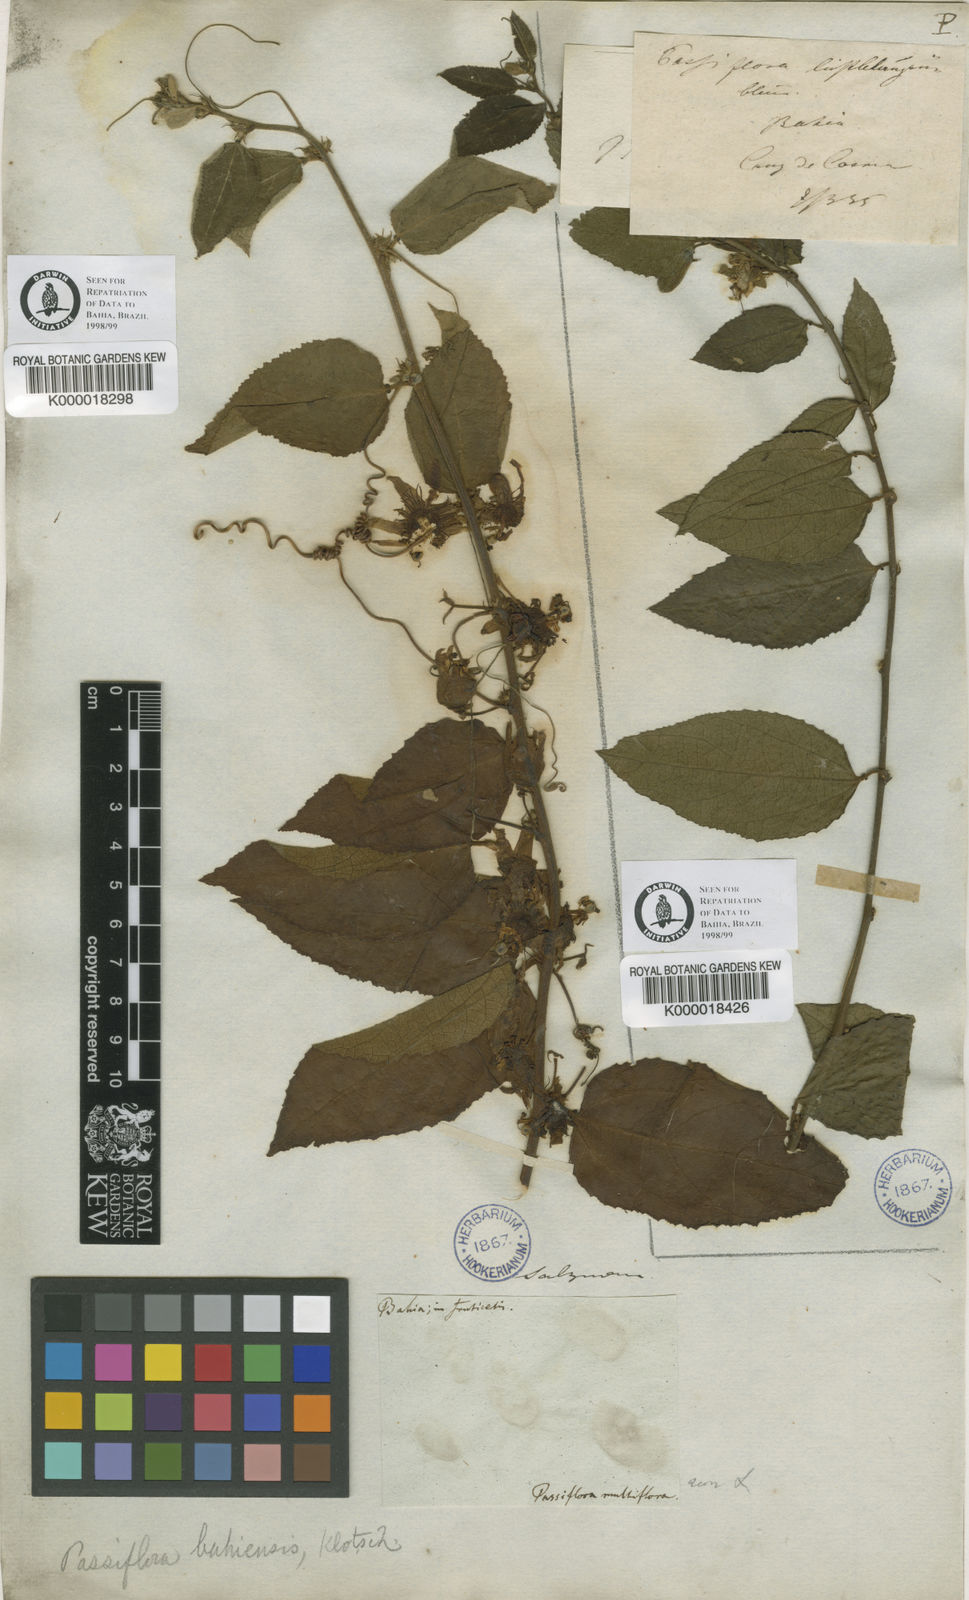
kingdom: Plantae
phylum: Tracheophyta
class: Magnoliopsida
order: Malpighiales
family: Passifloraceae
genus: Passiflora
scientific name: Passiflora
